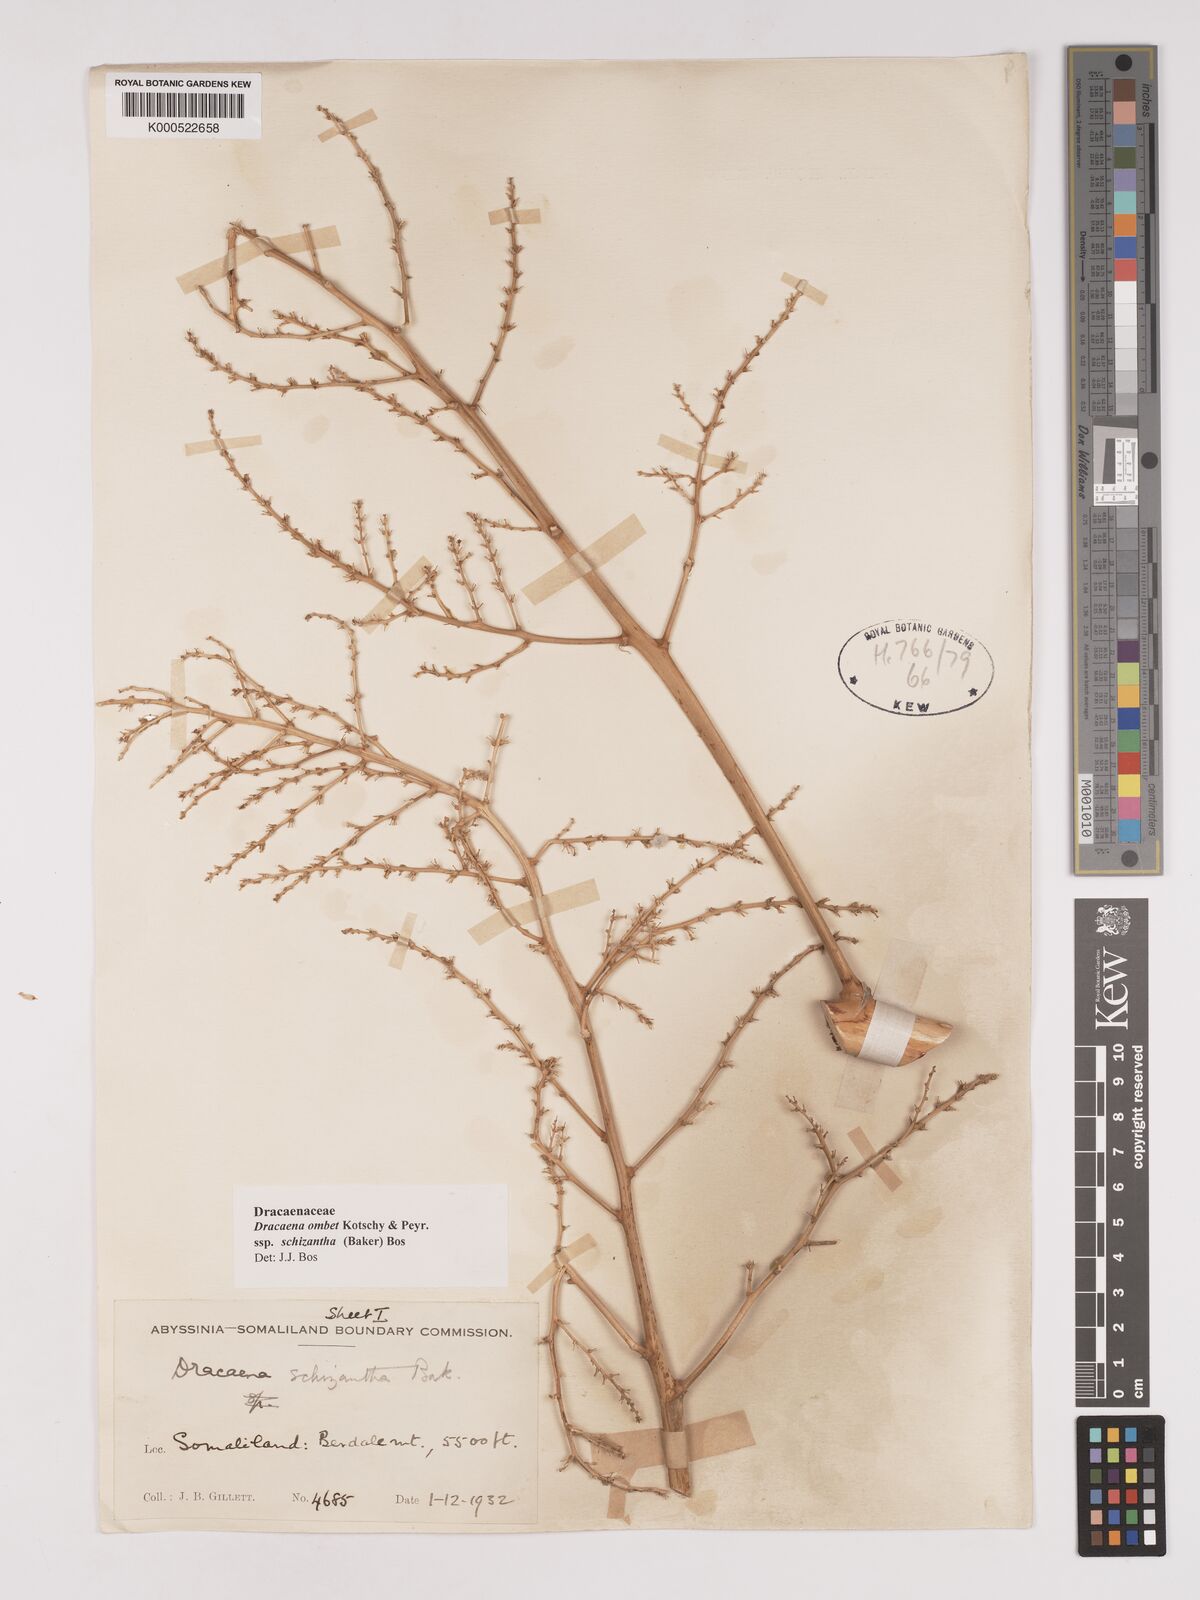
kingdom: Plantae
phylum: Tracheophyta
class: Liliopsida
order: Asparagales
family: Asparagaceae
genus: Dracaena
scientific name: Dracaena ombet
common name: Gabal elba dragon tree
